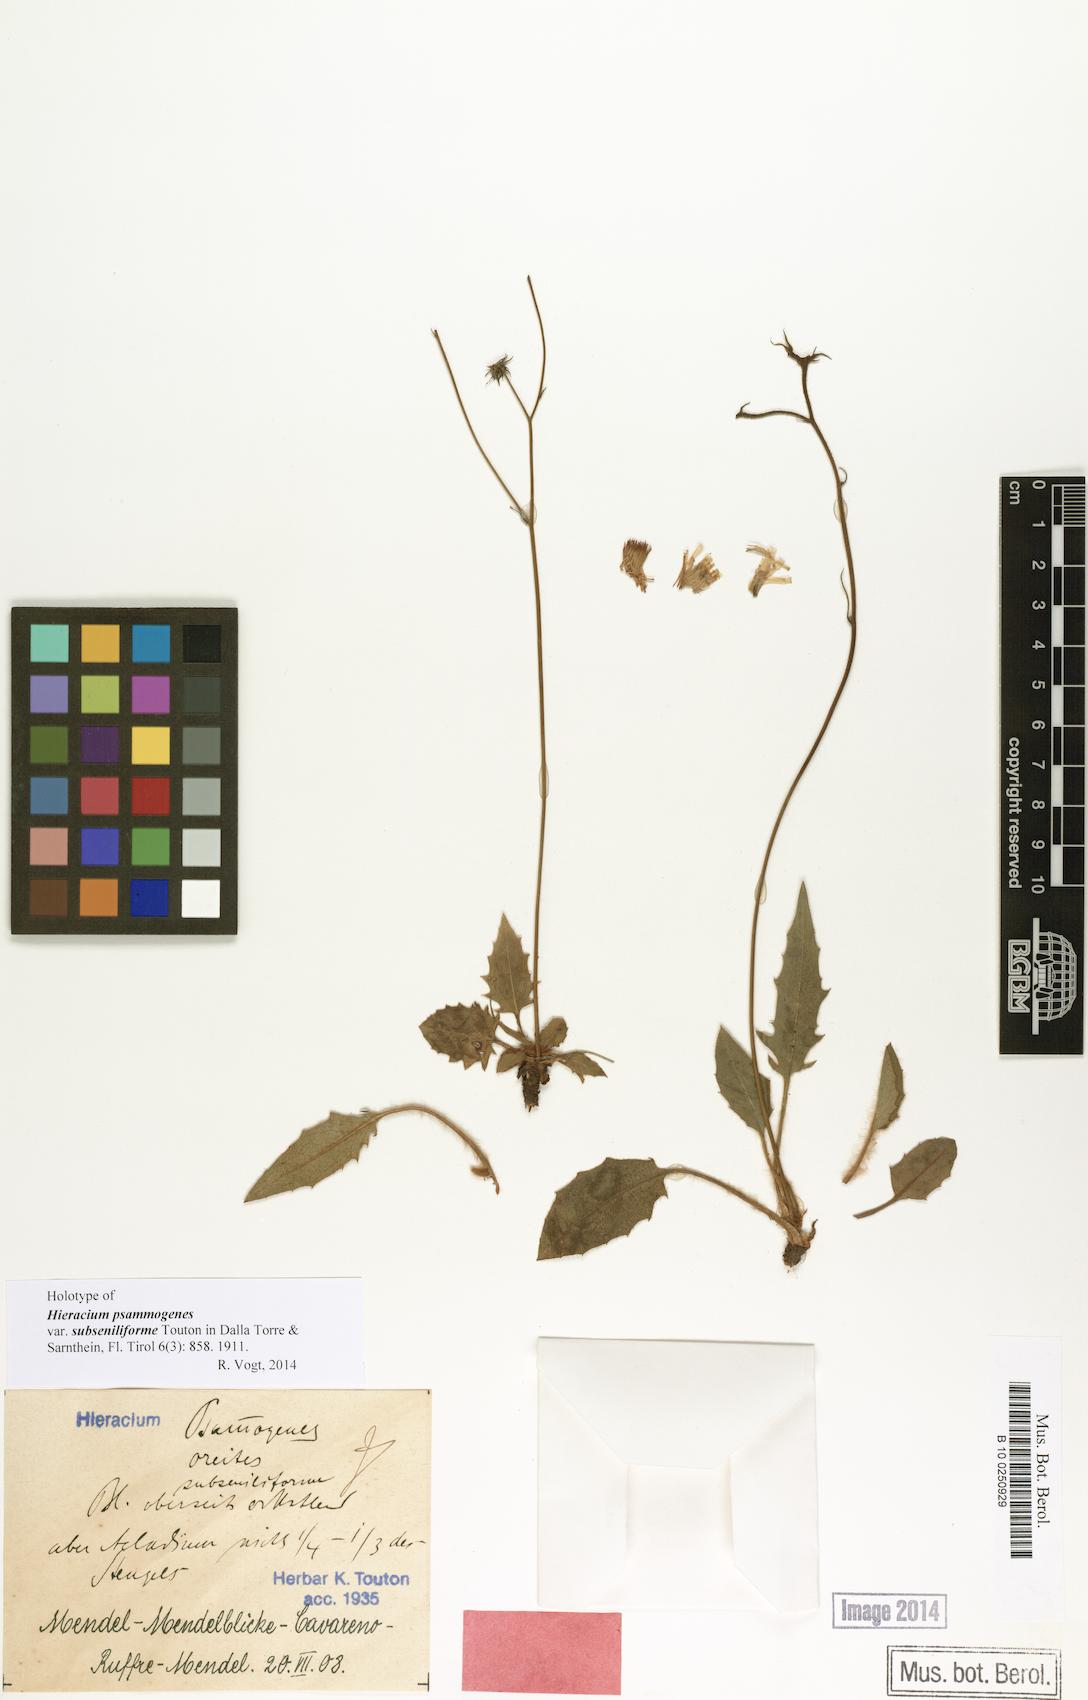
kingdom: Plantae
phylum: Tracheophyta
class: Magnoliopsida
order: Asterales
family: Asteraceae
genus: Hieracium
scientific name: Hieracium psammogenes
